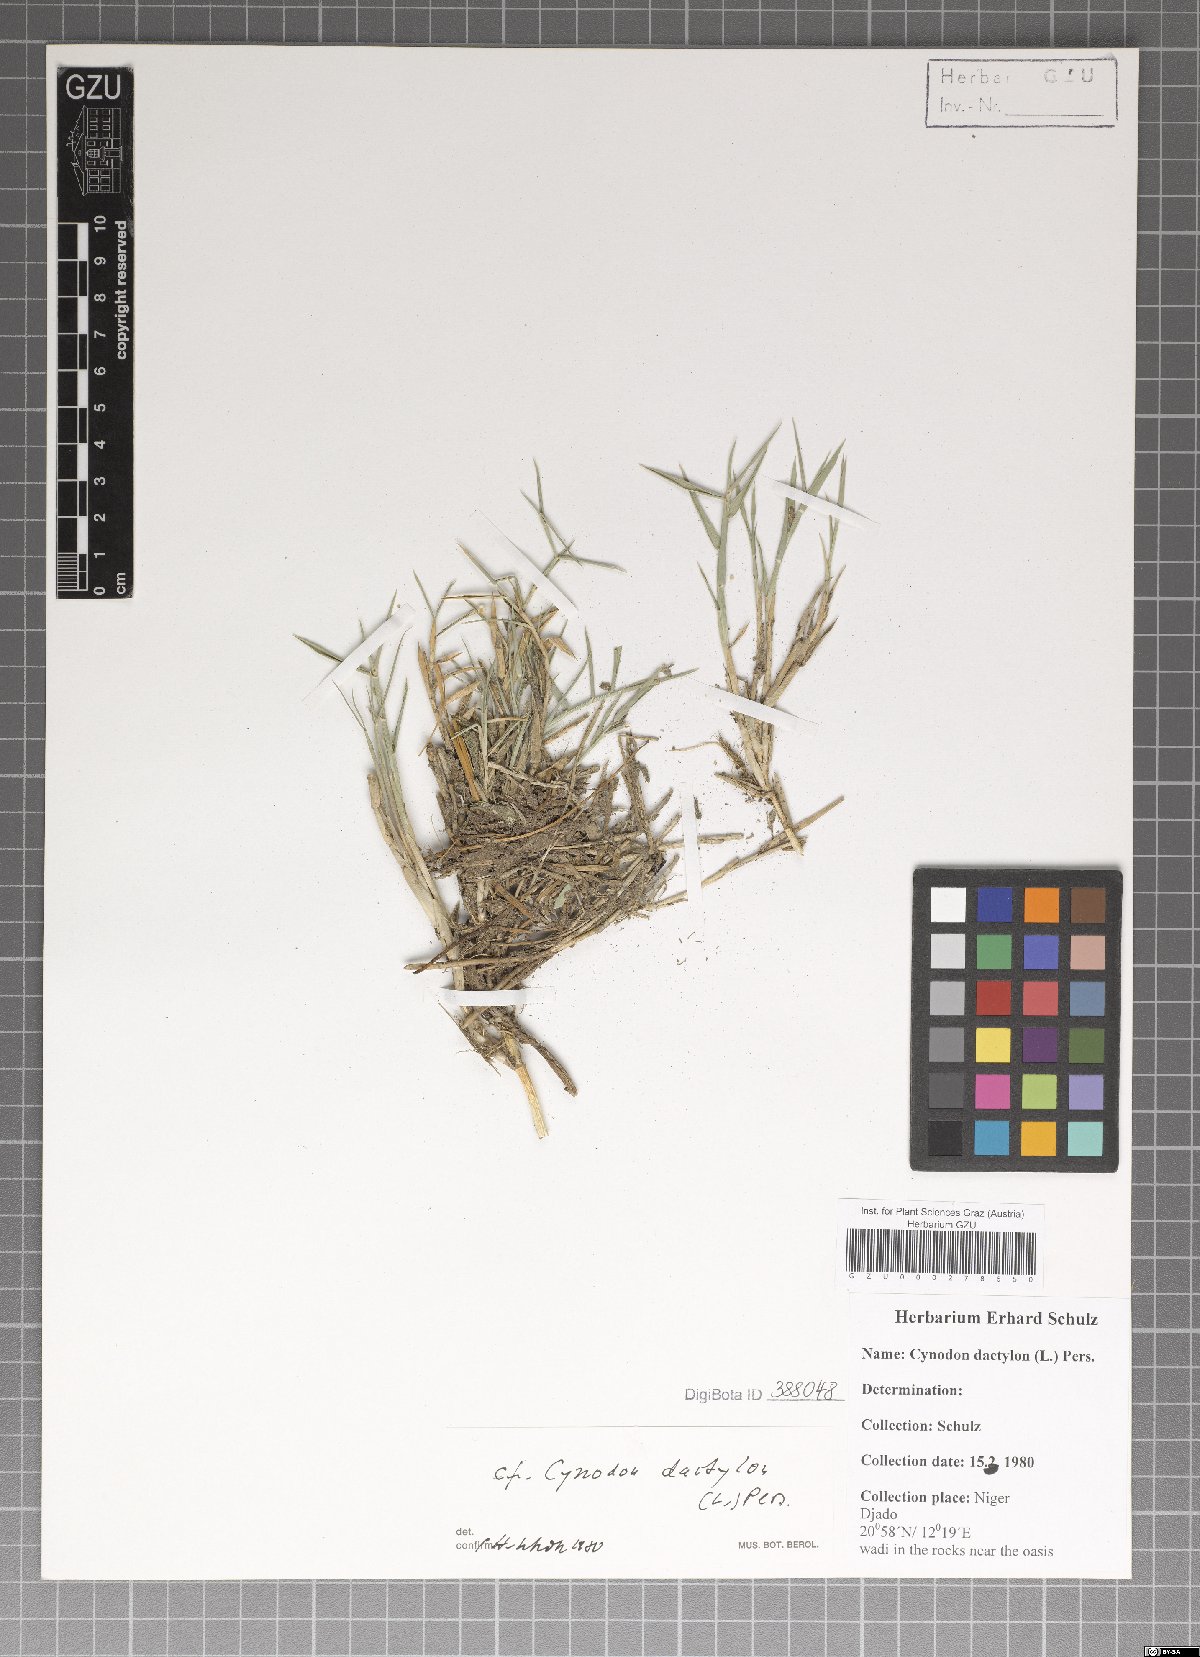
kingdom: Plantae
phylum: Tracheophyta
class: Liliopsida
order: Poales
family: Poaceae
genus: Cynodon
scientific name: Cynodon dactylon
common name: Bermuda grass
